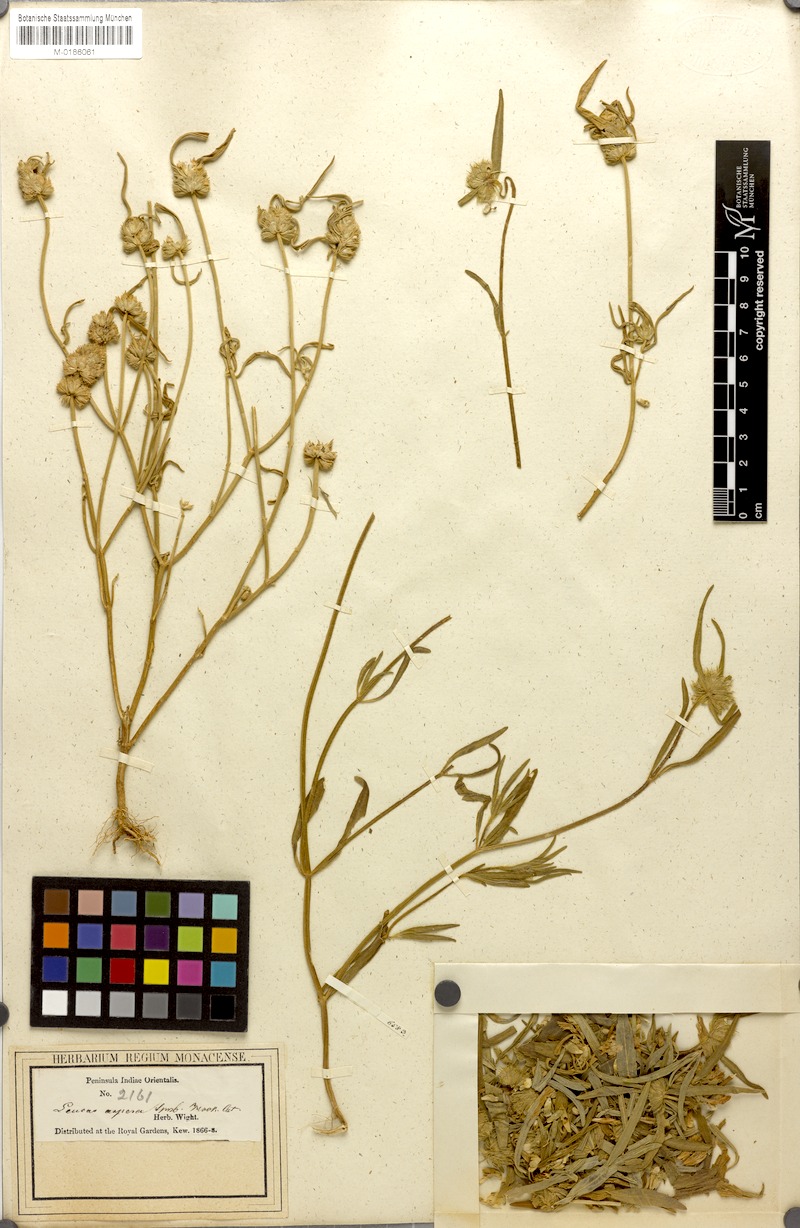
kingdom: Plantae
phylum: Tracheophyta
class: Magnoliopsida
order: Lamiales
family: Lamiaceae
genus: Leucas
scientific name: Leucas aspera
